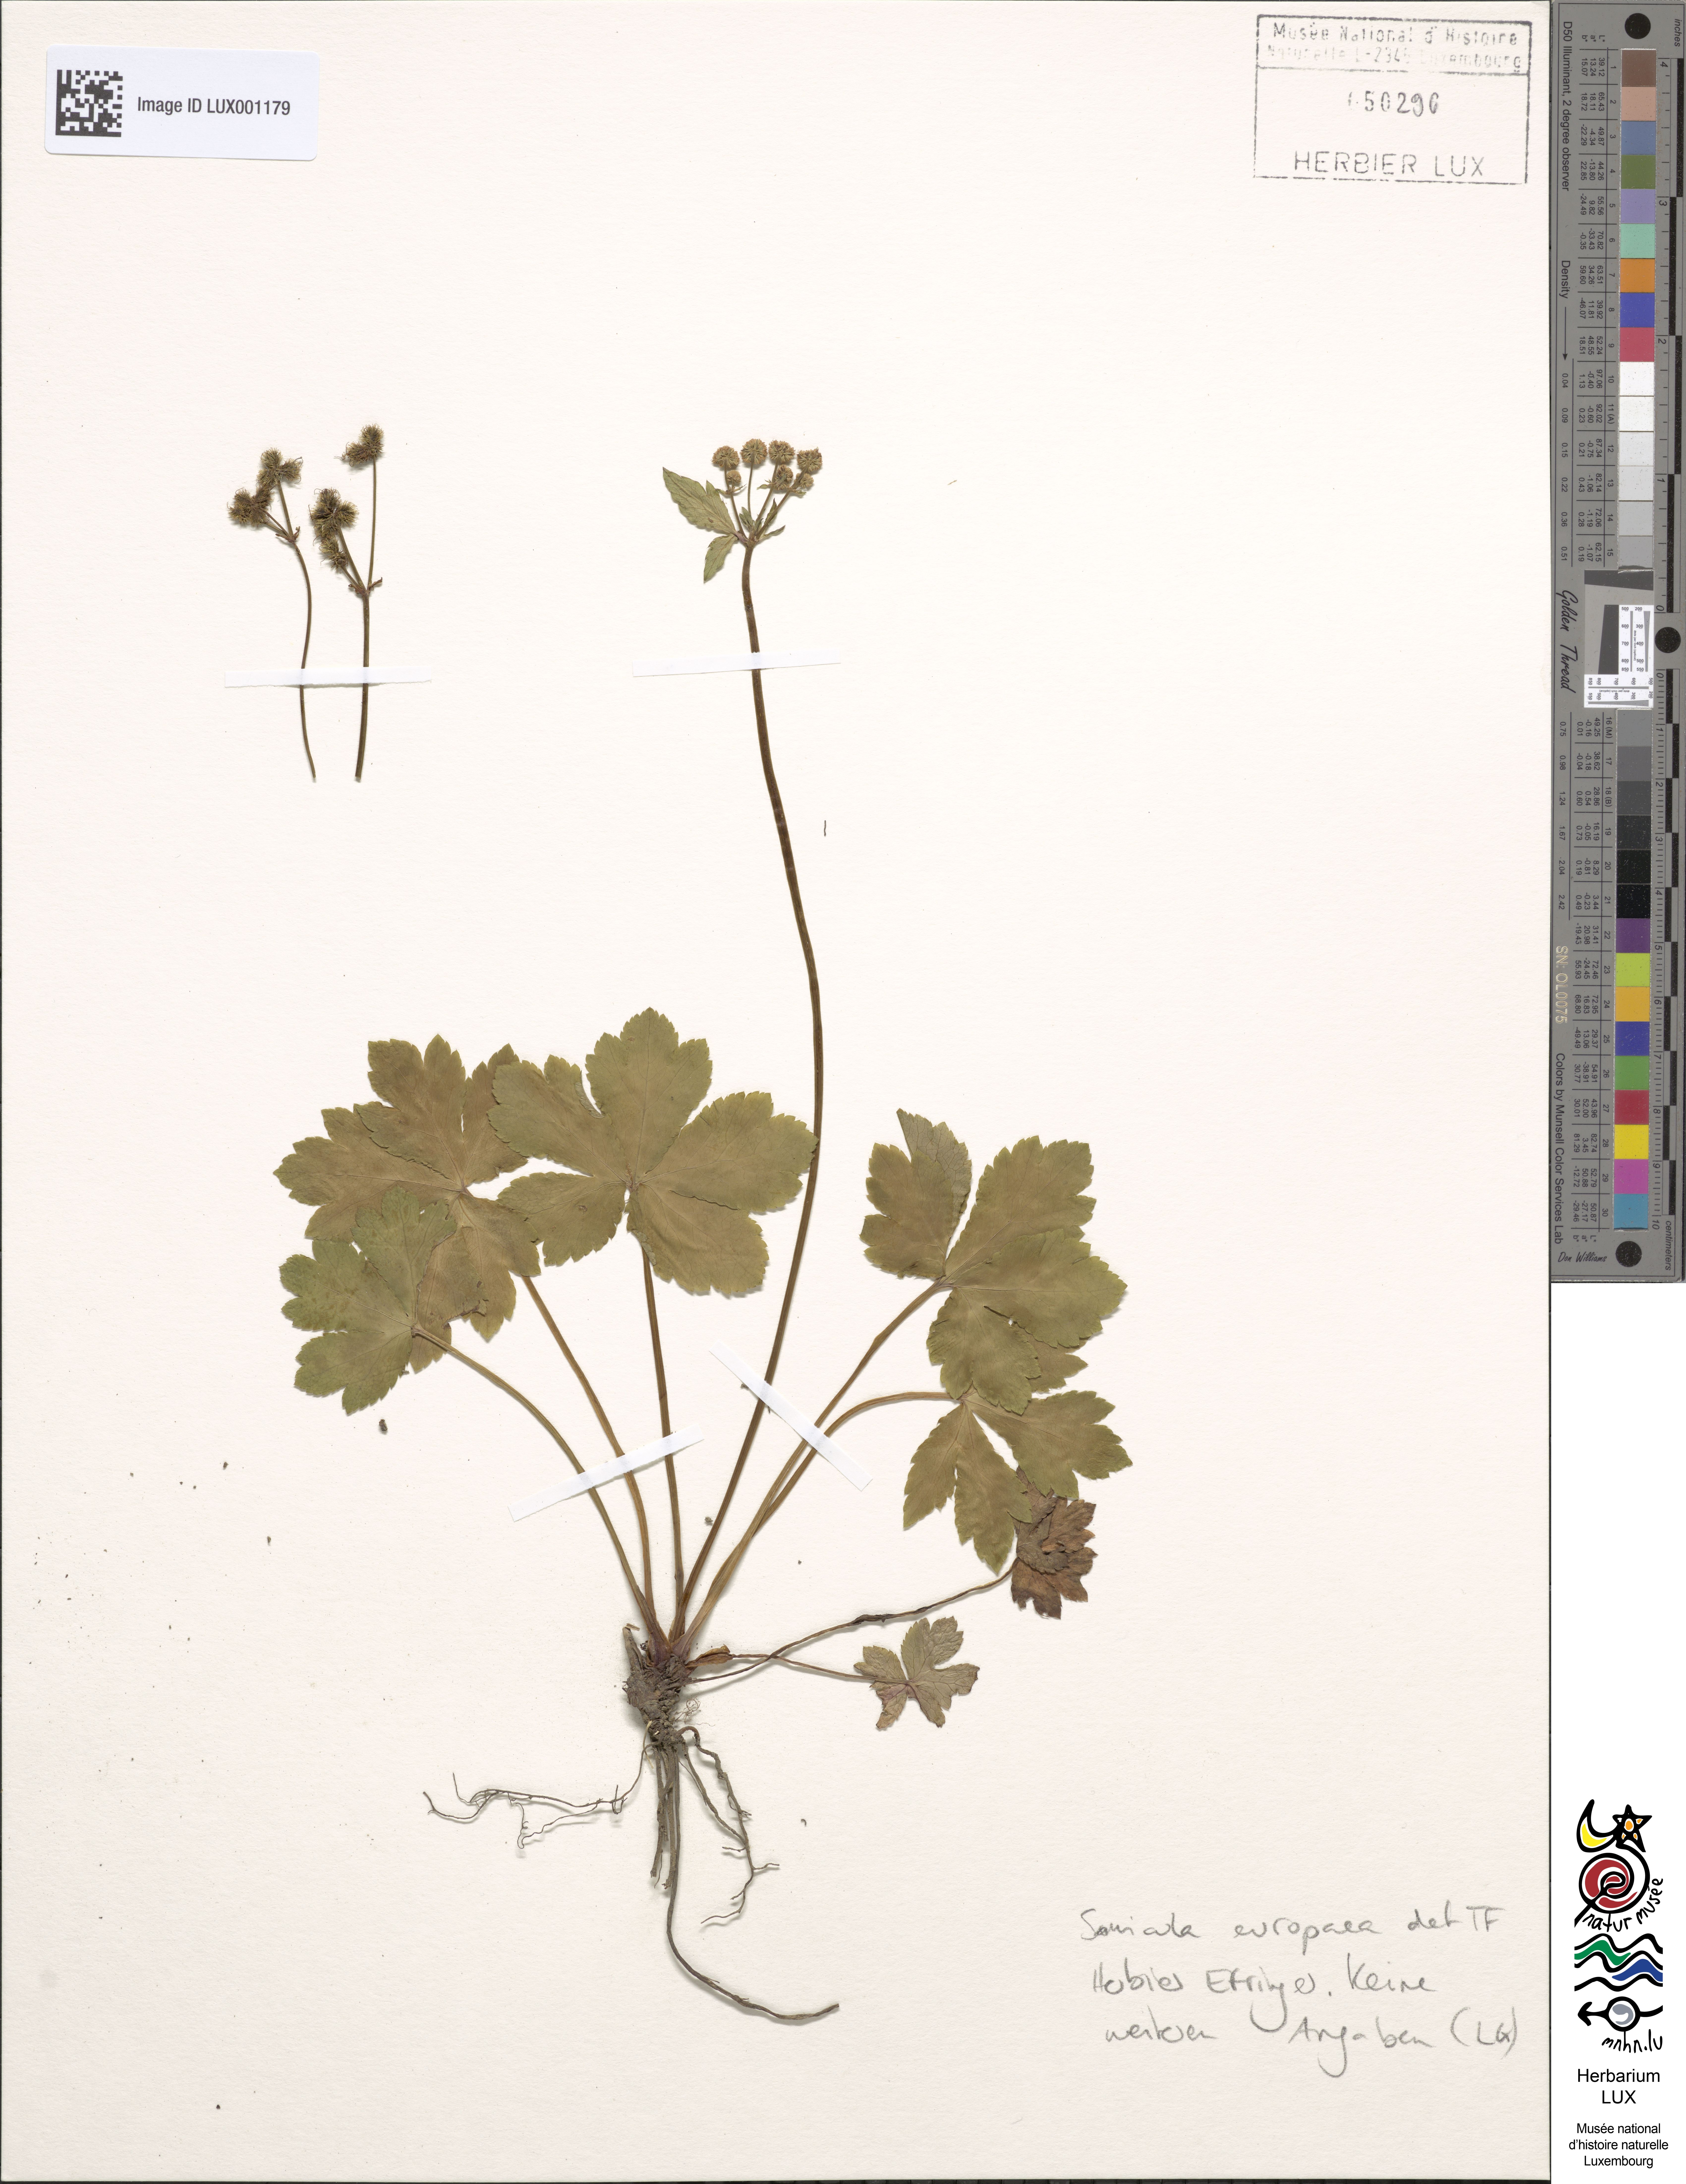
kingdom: Plantae
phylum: Tracheophyta
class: Magnoliopsida
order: Apiales
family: Apiaceae
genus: Sanicula
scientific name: Sanicula europaea
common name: Sanicle
